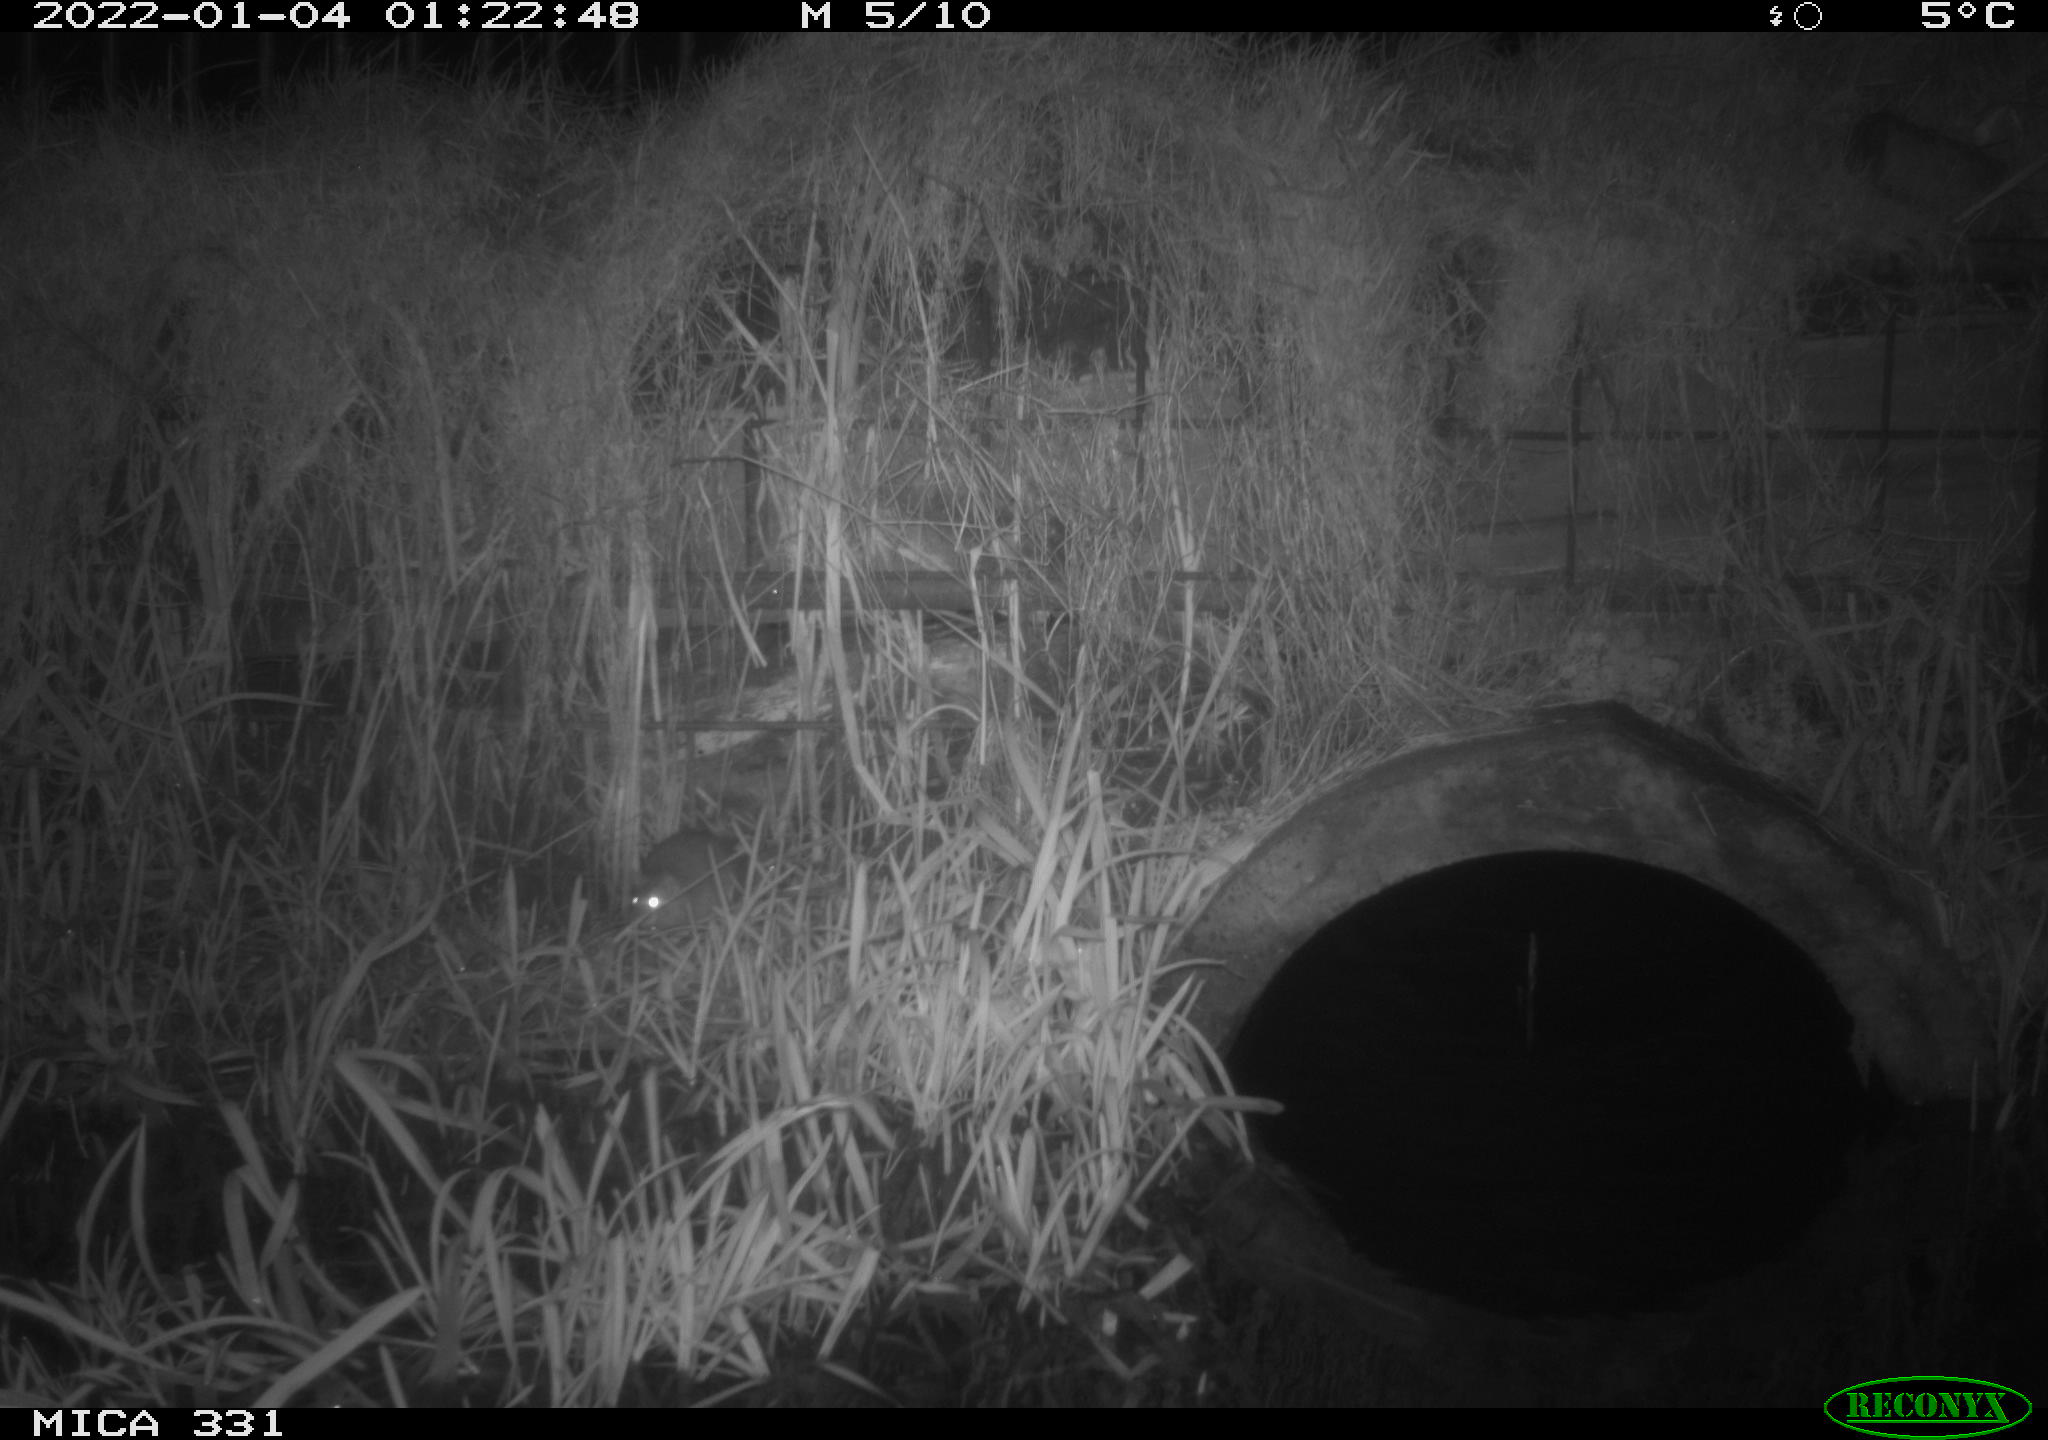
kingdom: Animalia
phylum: Chordata
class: Mammalia
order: Rodentia
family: Muridae
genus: Rattus
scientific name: Rattus norvegicus
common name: Brown rat
